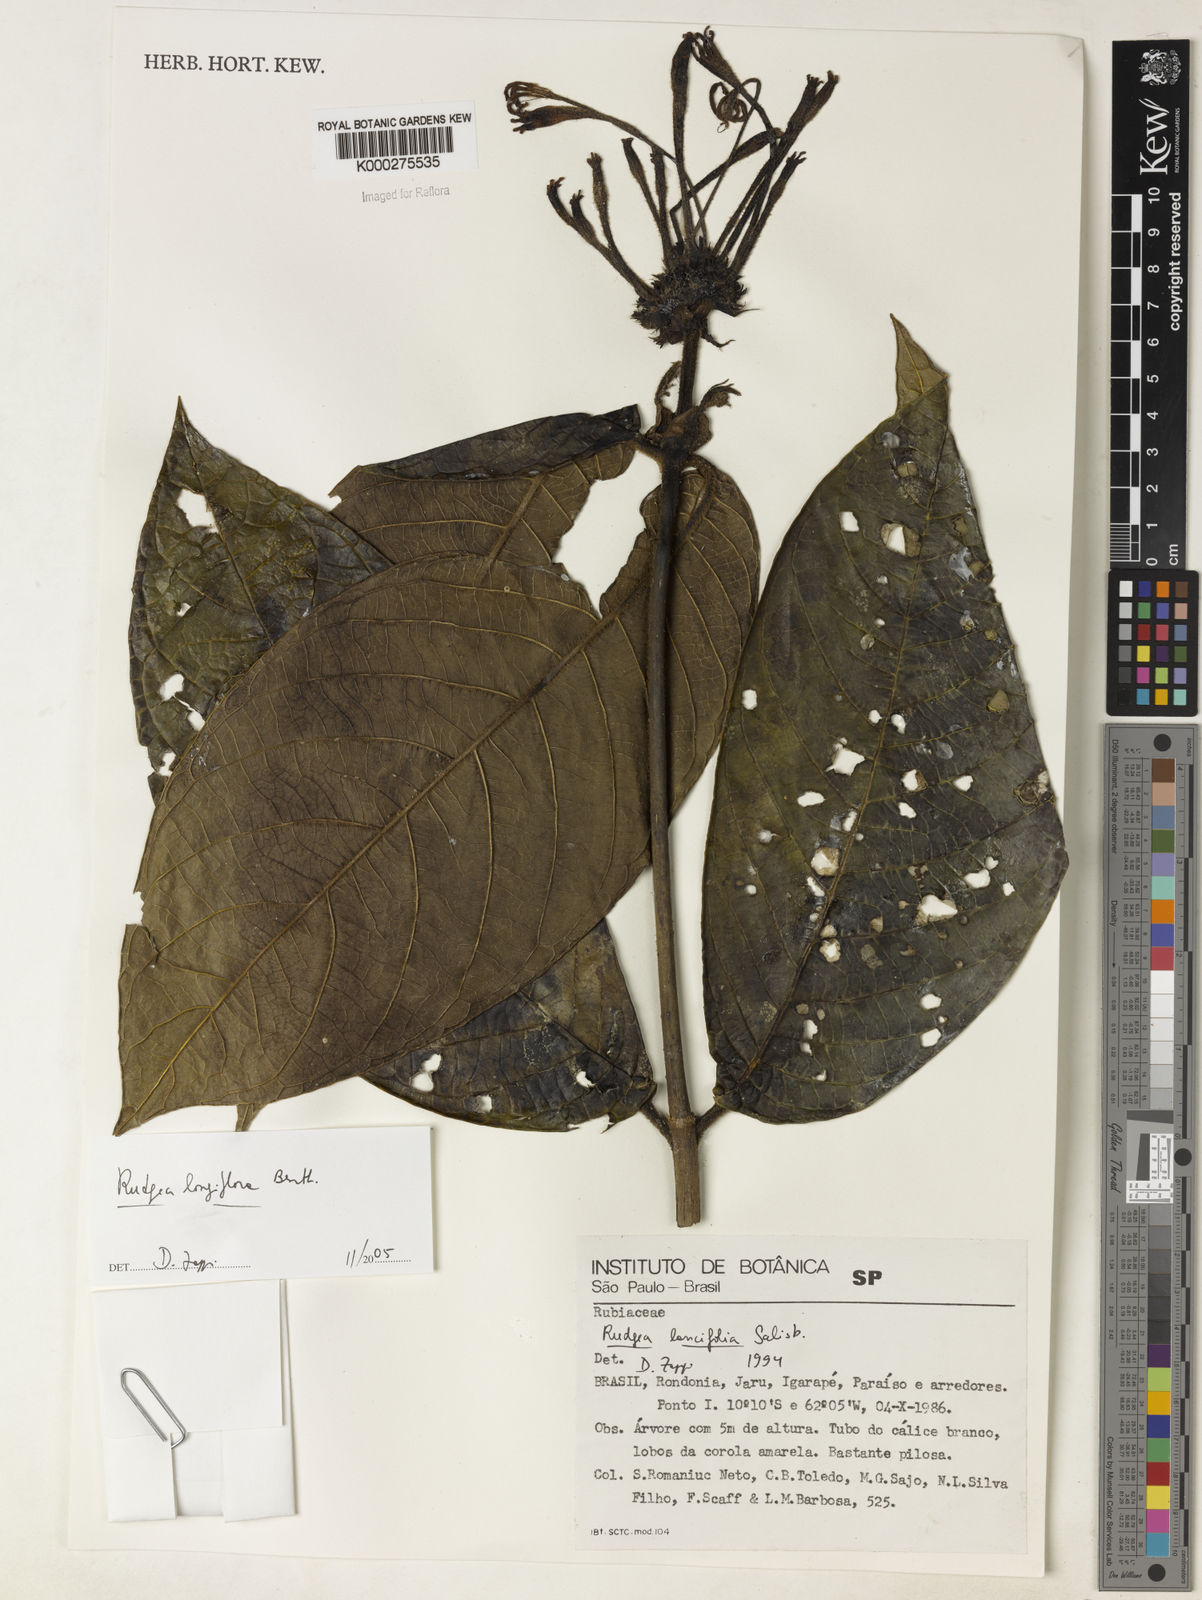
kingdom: Plantae
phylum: Tracheophyta
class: Magnoliopsida
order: Gentianales
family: Rubiaceae
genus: Rudgea
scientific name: Rudgea longiflora
